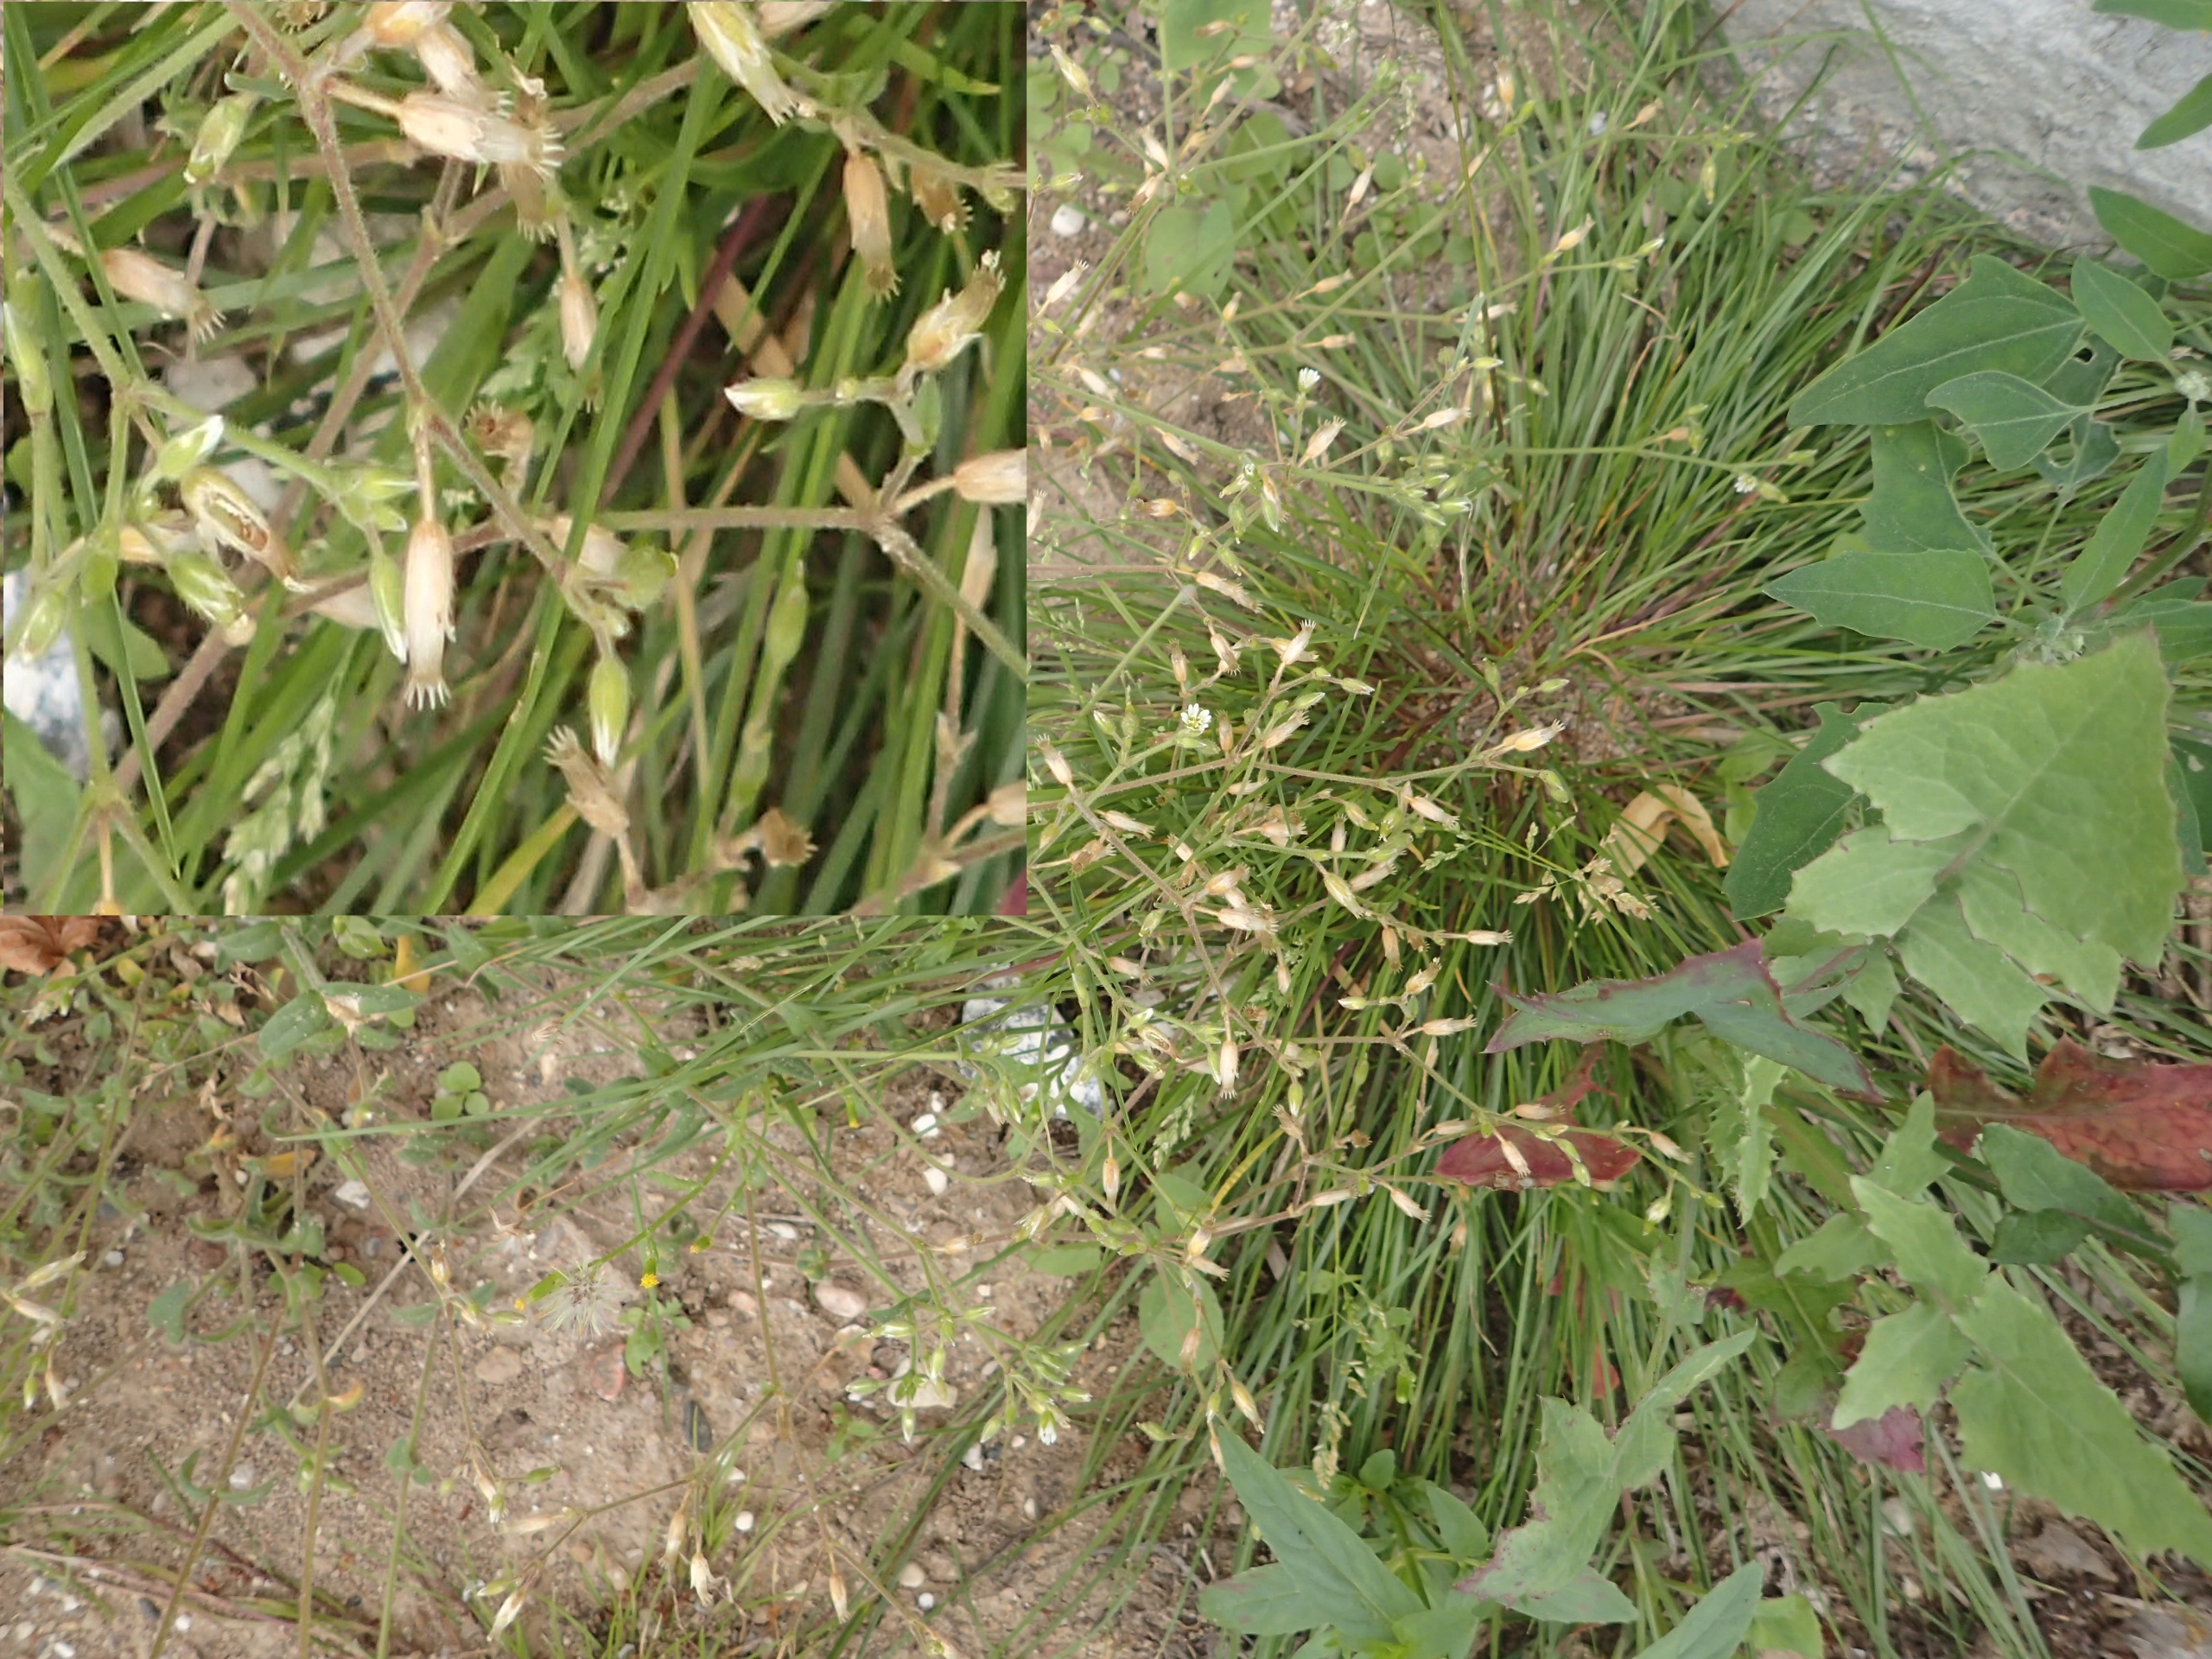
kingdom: Plantae
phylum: Tracheophyta
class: Magnoliopsida
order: Caryophyllales
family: Caryophyllaceae
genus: Cerastium
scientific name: Cerastium fontanum
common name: Almindelig hønsetarm
